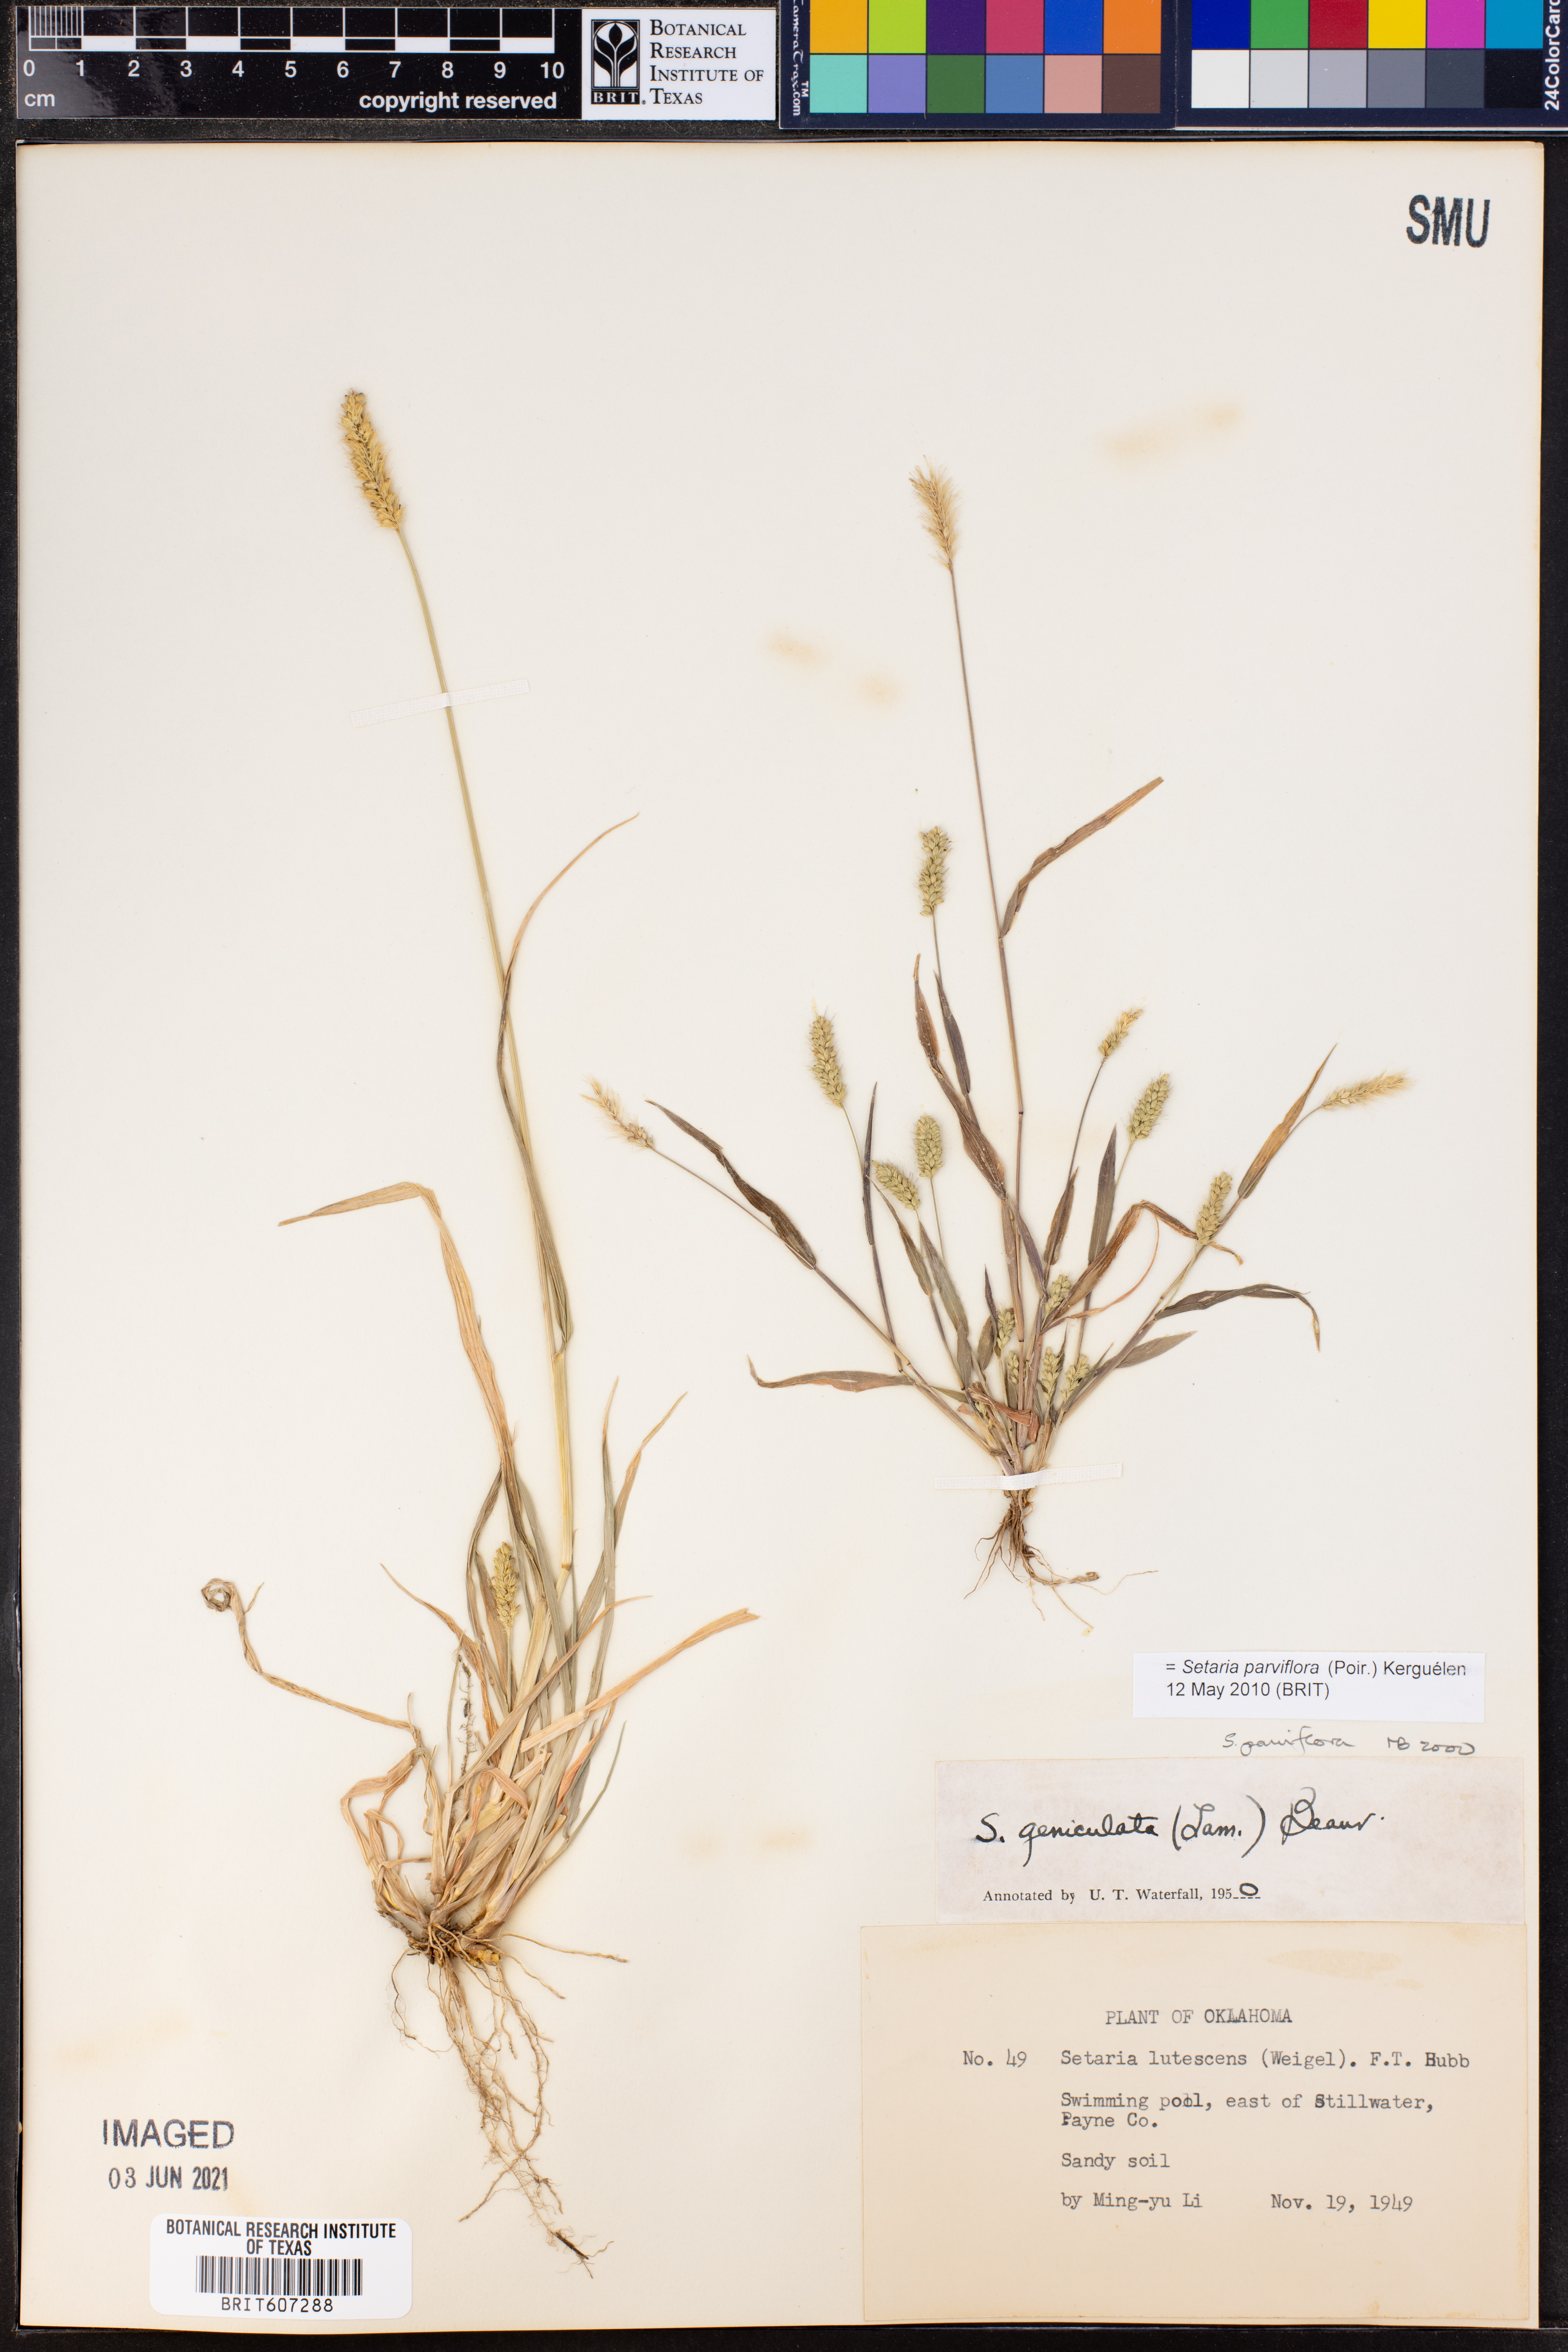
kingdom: Plantae
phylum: Tracheophyta
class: Liliopsida
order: Poales
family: Poaceae
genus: Setaria
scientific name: Setaria parviflora
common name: Knotroot bristle-grass
